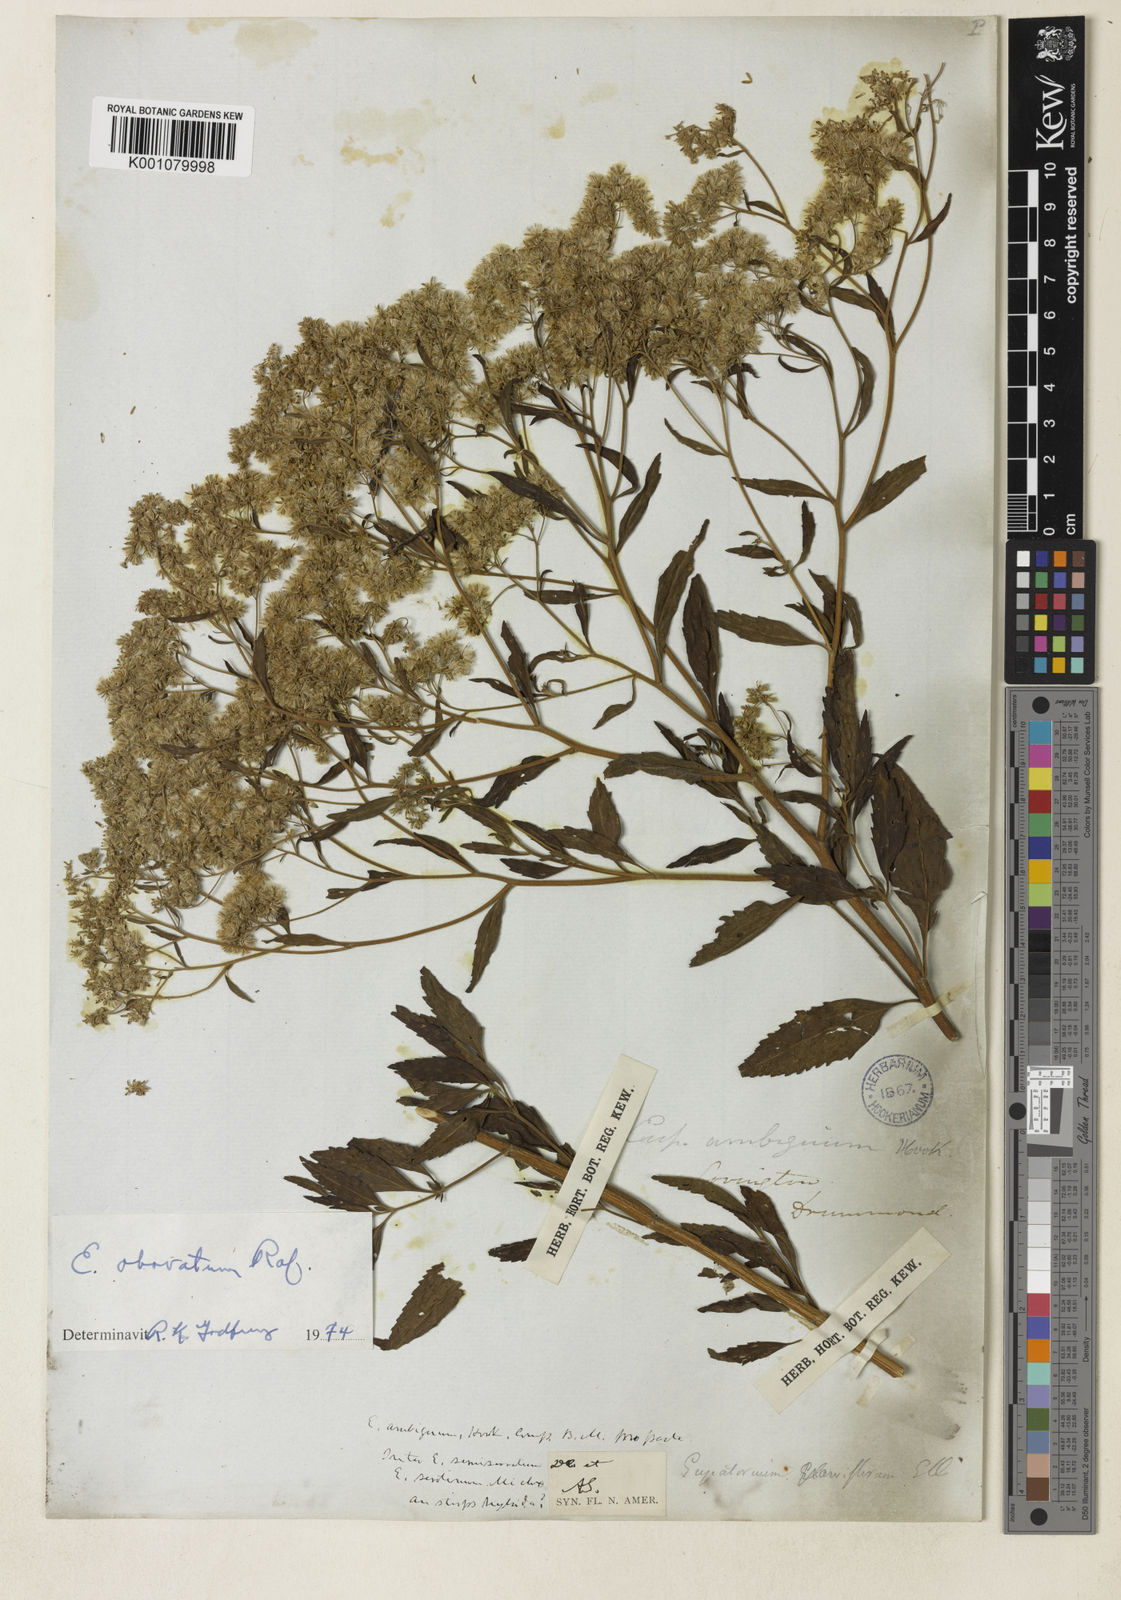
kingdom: Plantae
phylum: Tracheophyta
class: Magnoliopsida
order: Asterales
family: Asteraceae
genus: Eupatorium
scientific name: Eupatorium rotundifolium
